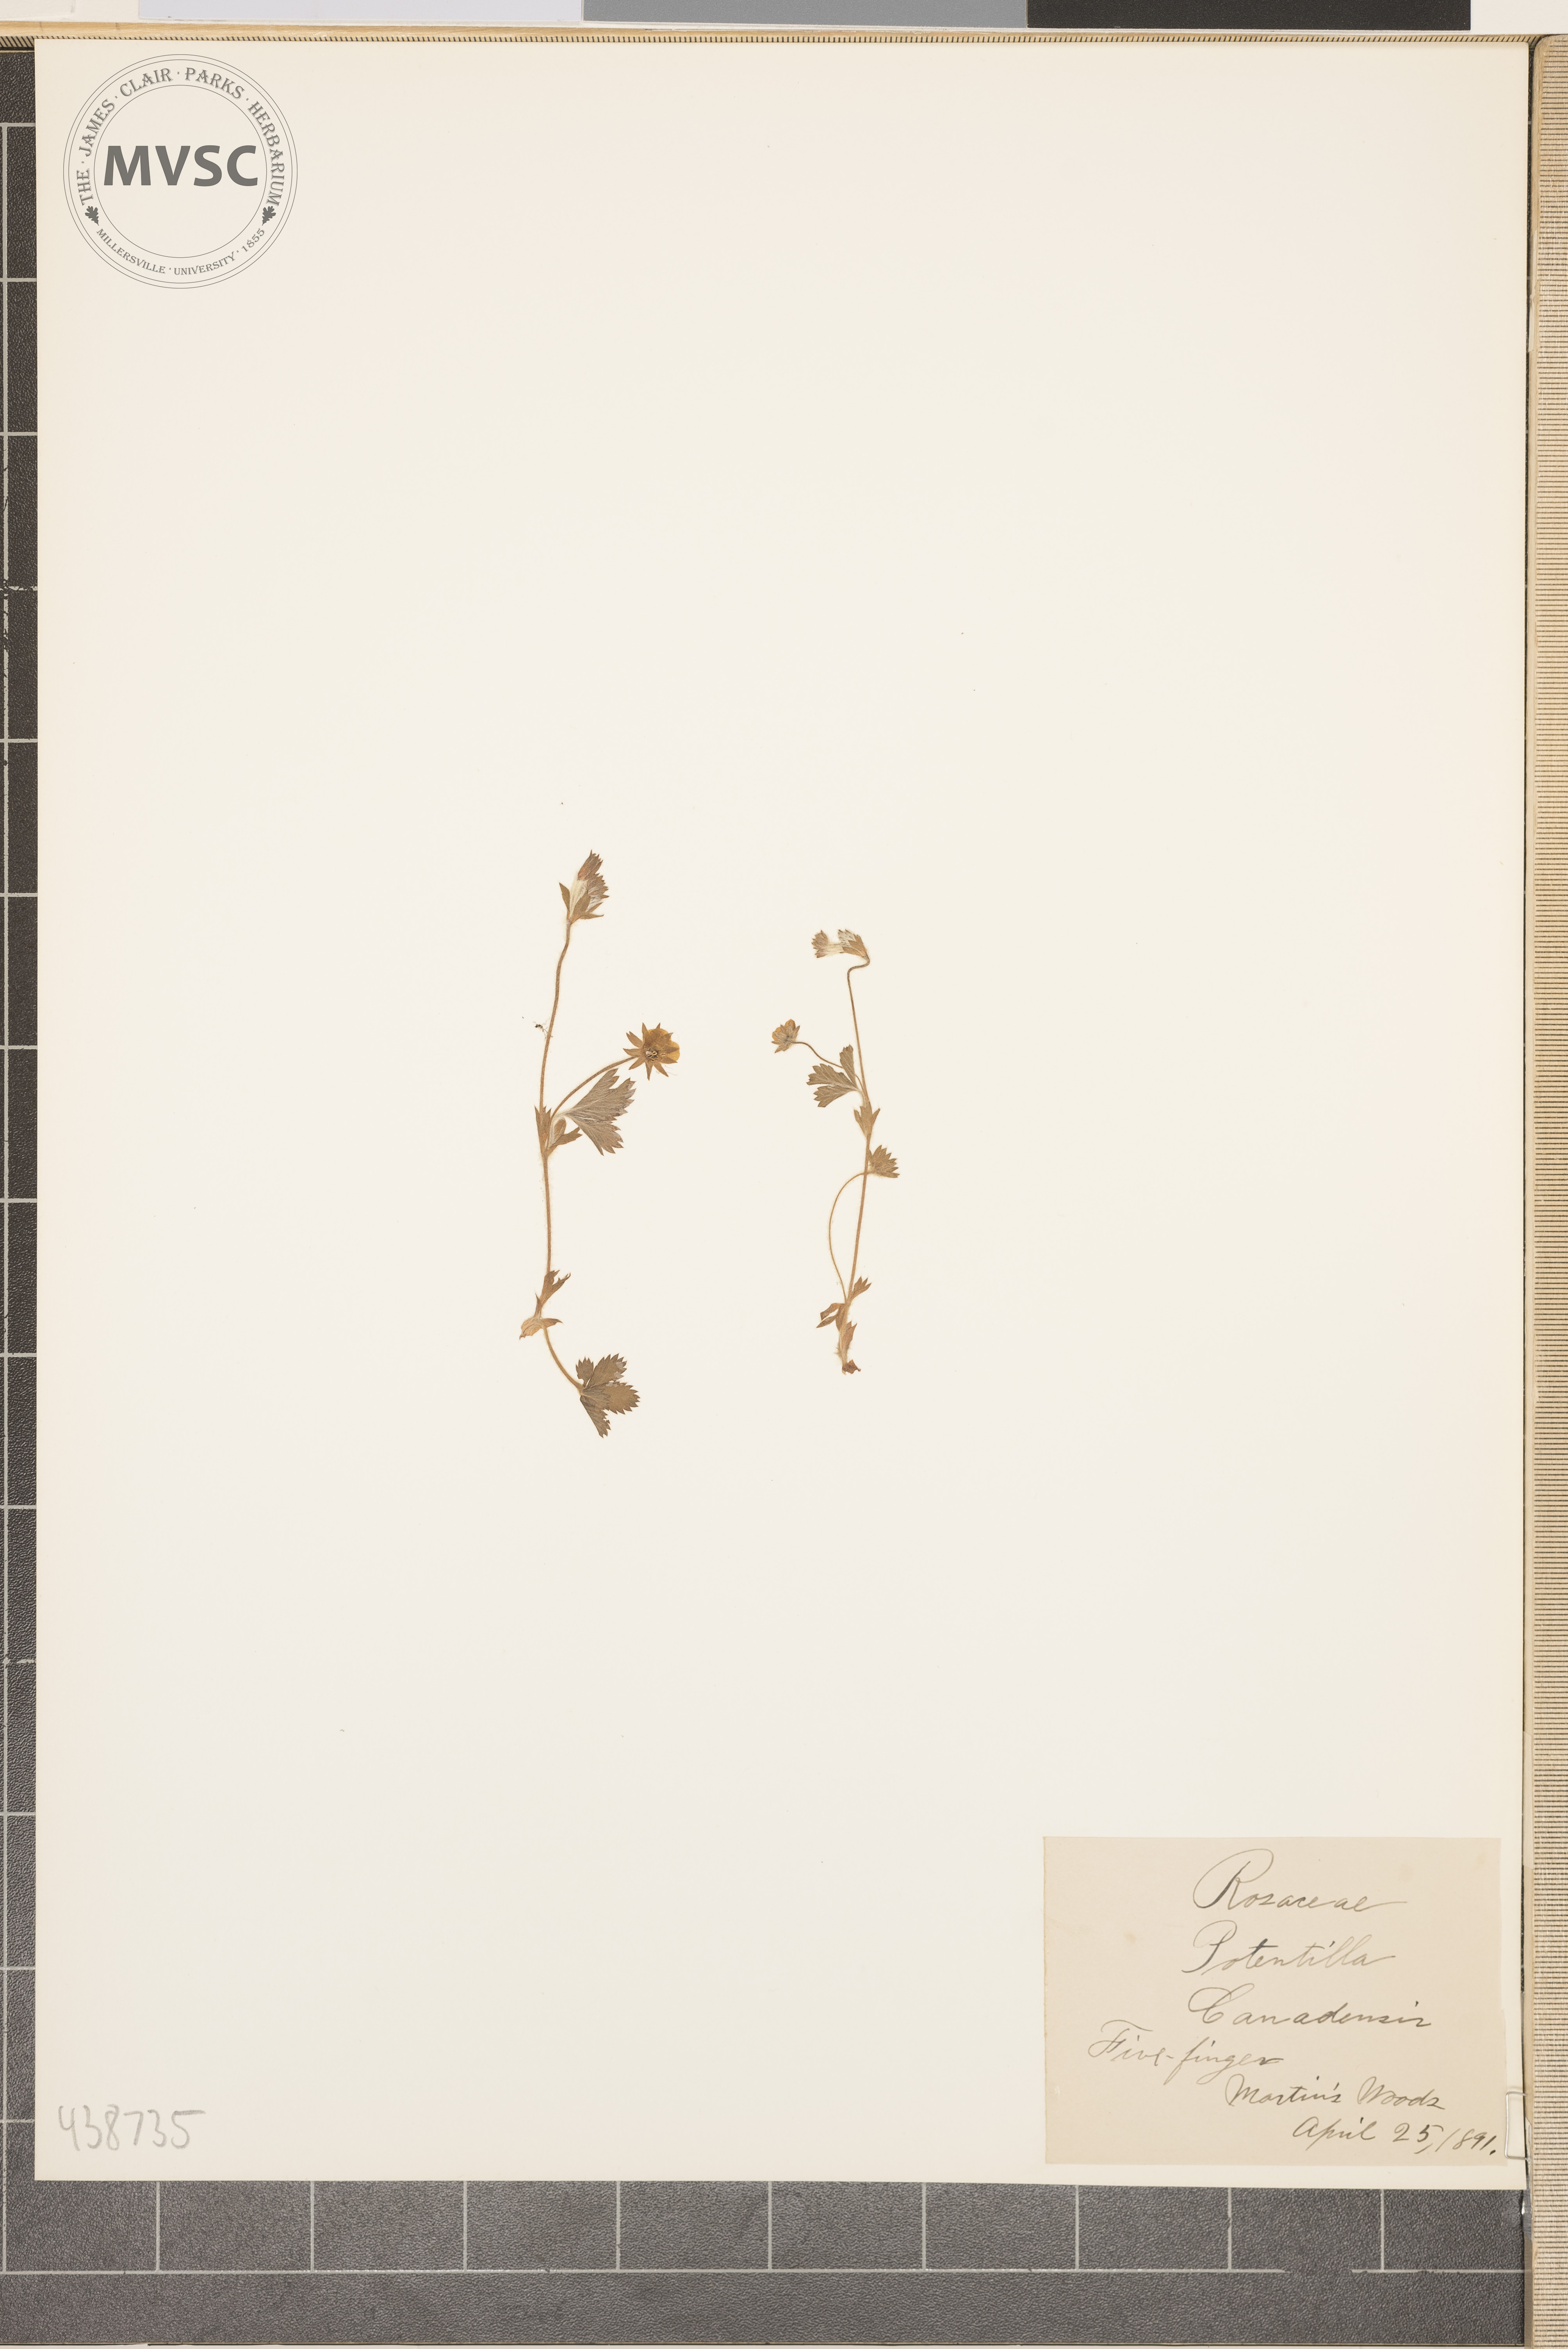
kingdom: Plantae
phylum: Tracheophyta
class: Magnoliopsida
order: Rosales
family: Rosaceae
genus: Potentilla
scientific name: Potentilla canadensis
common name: Five Finger
